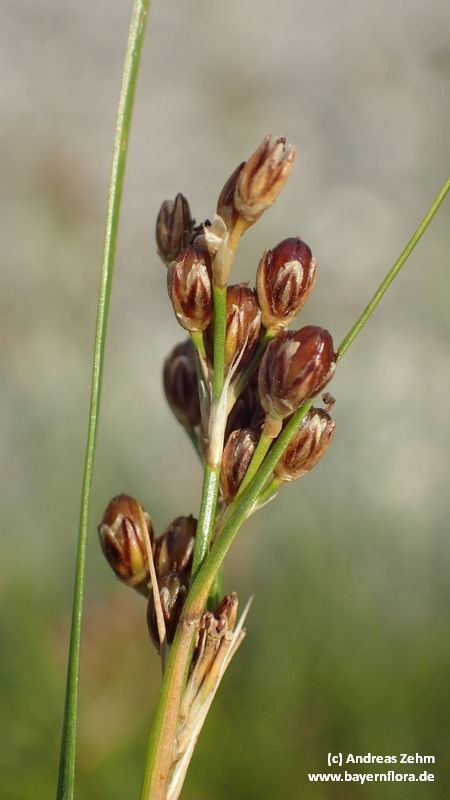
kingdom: Plantae
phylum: Tracheophyta
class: Liliopsida
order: Poales
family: Juncaceae
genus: Juncus
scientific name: Juncus compressus
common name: Round-fruited rush
